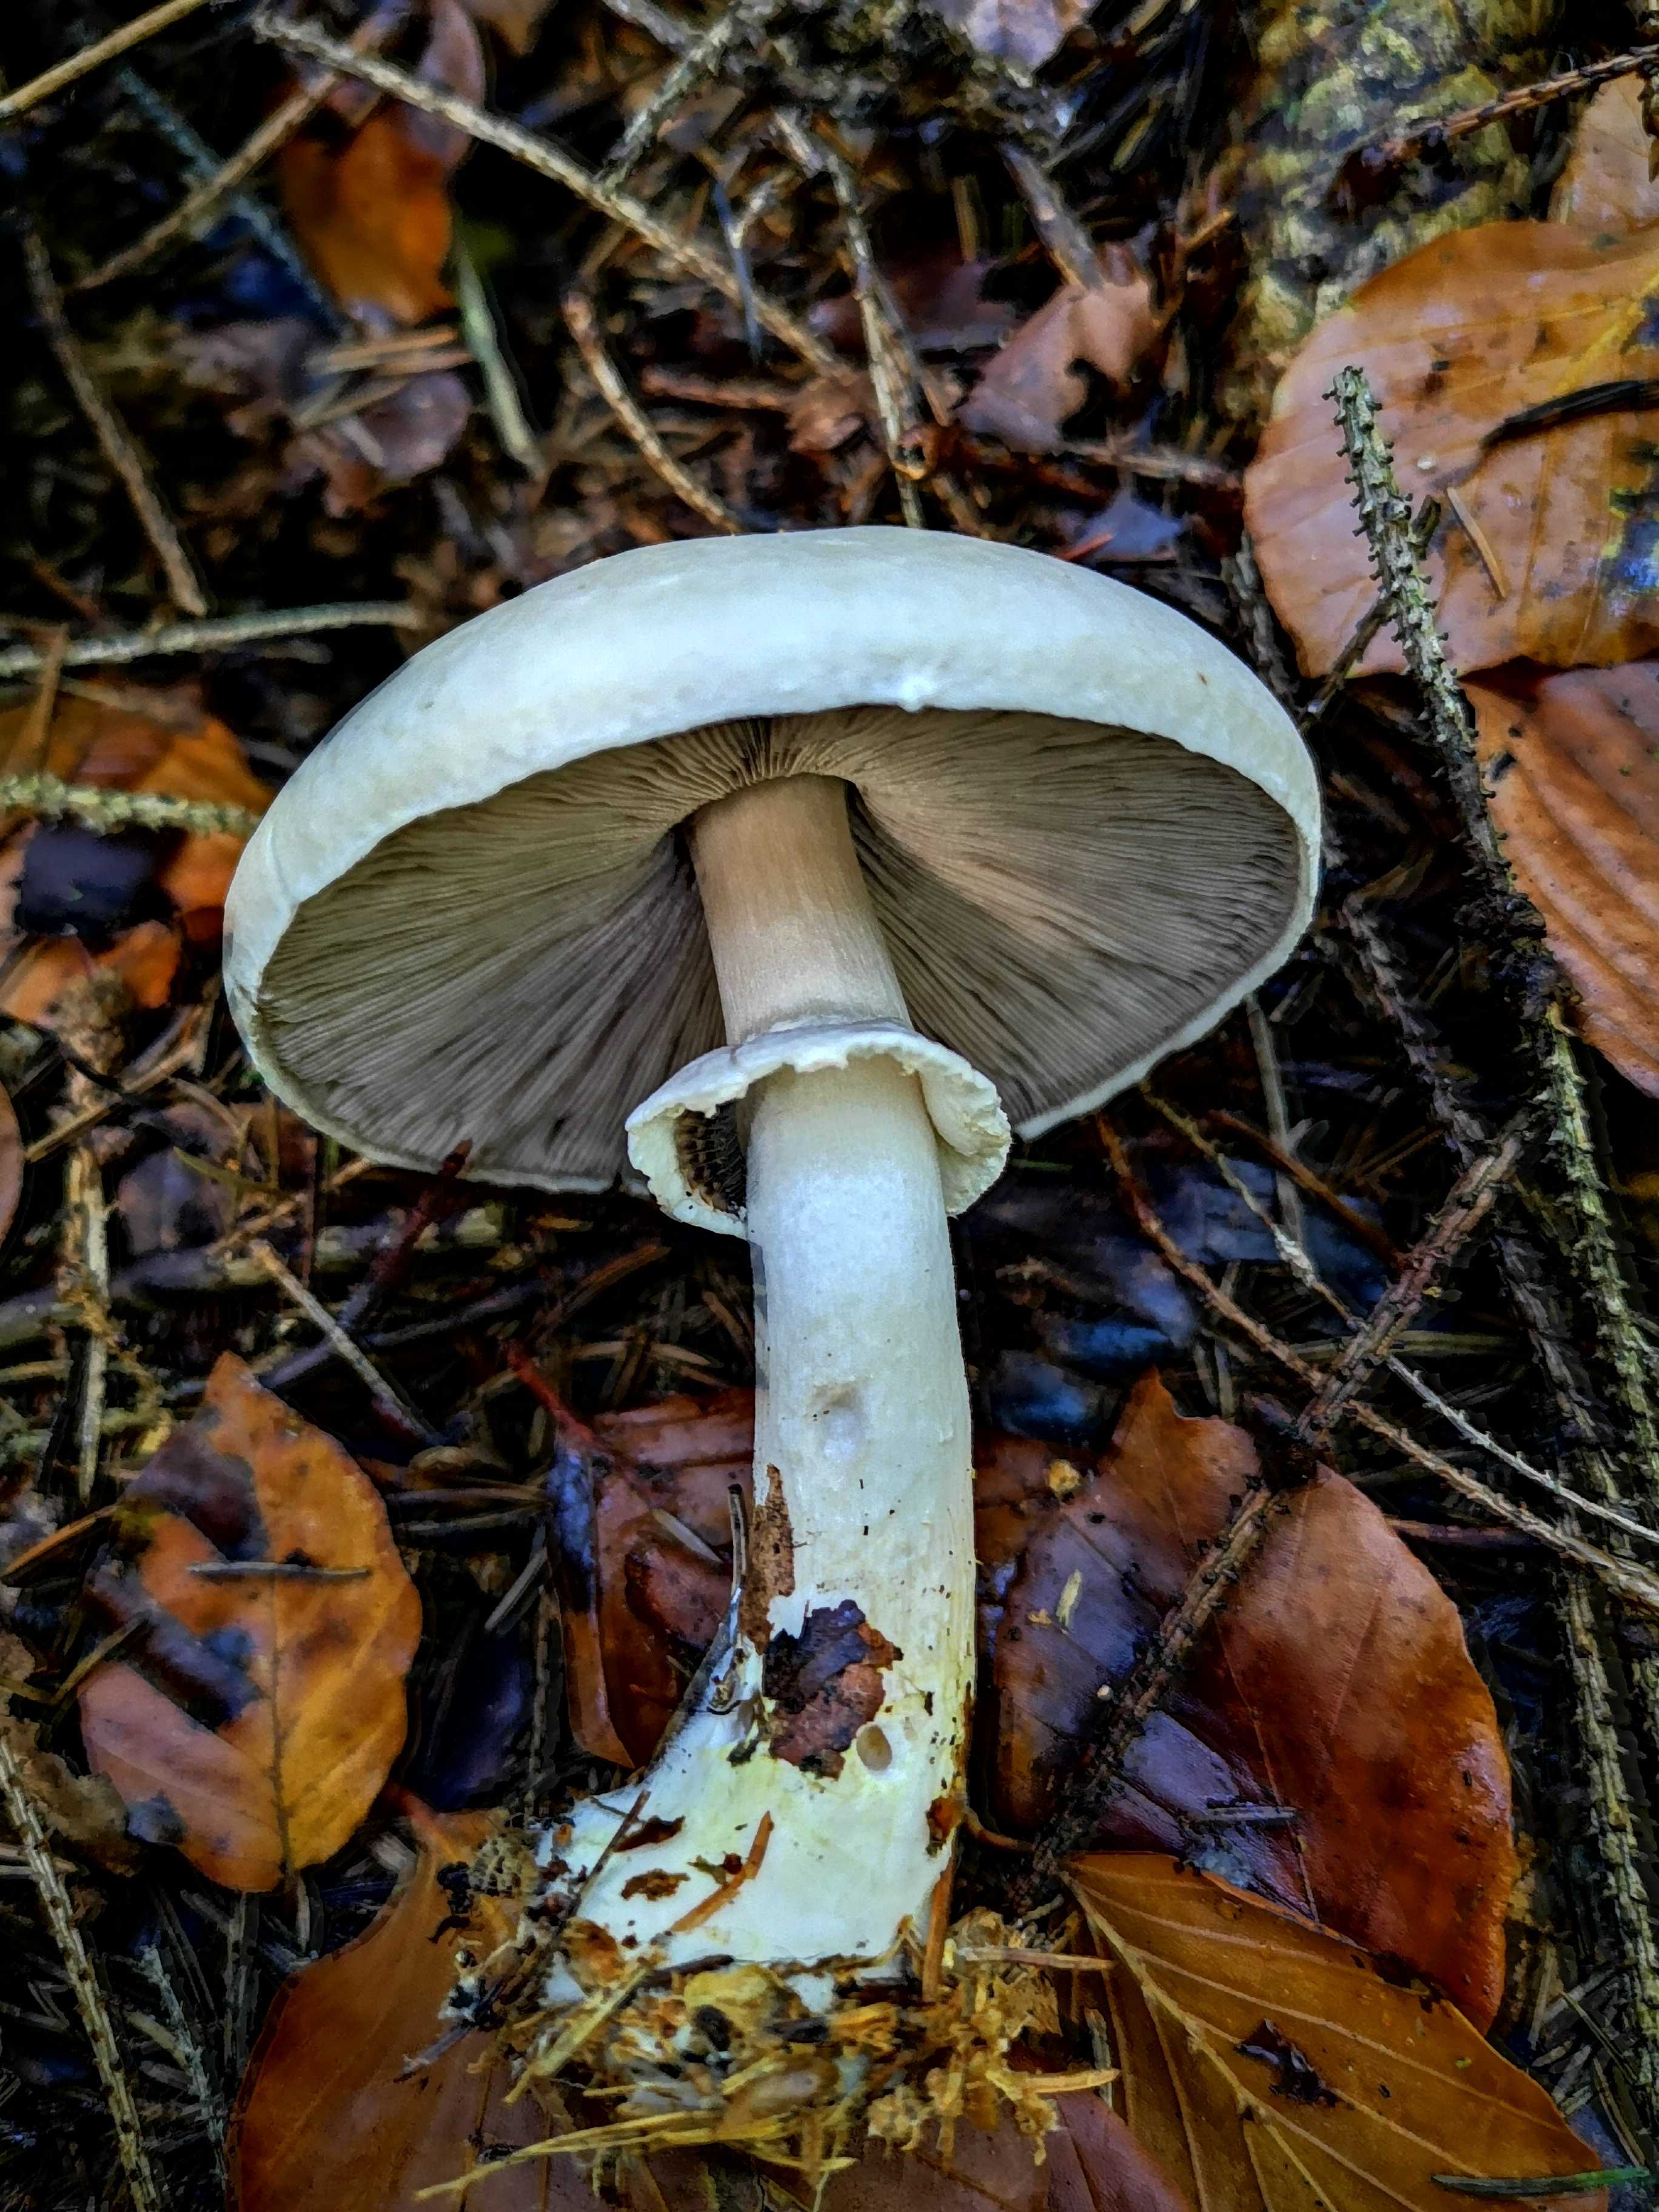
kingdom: Fungi
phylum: Basidiomycota
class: Agaricomycetes
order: Agaricales
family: Agaricaceae
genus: Agaricus
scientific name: Agaricus sylvicola
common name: skiveknoldet champignon
